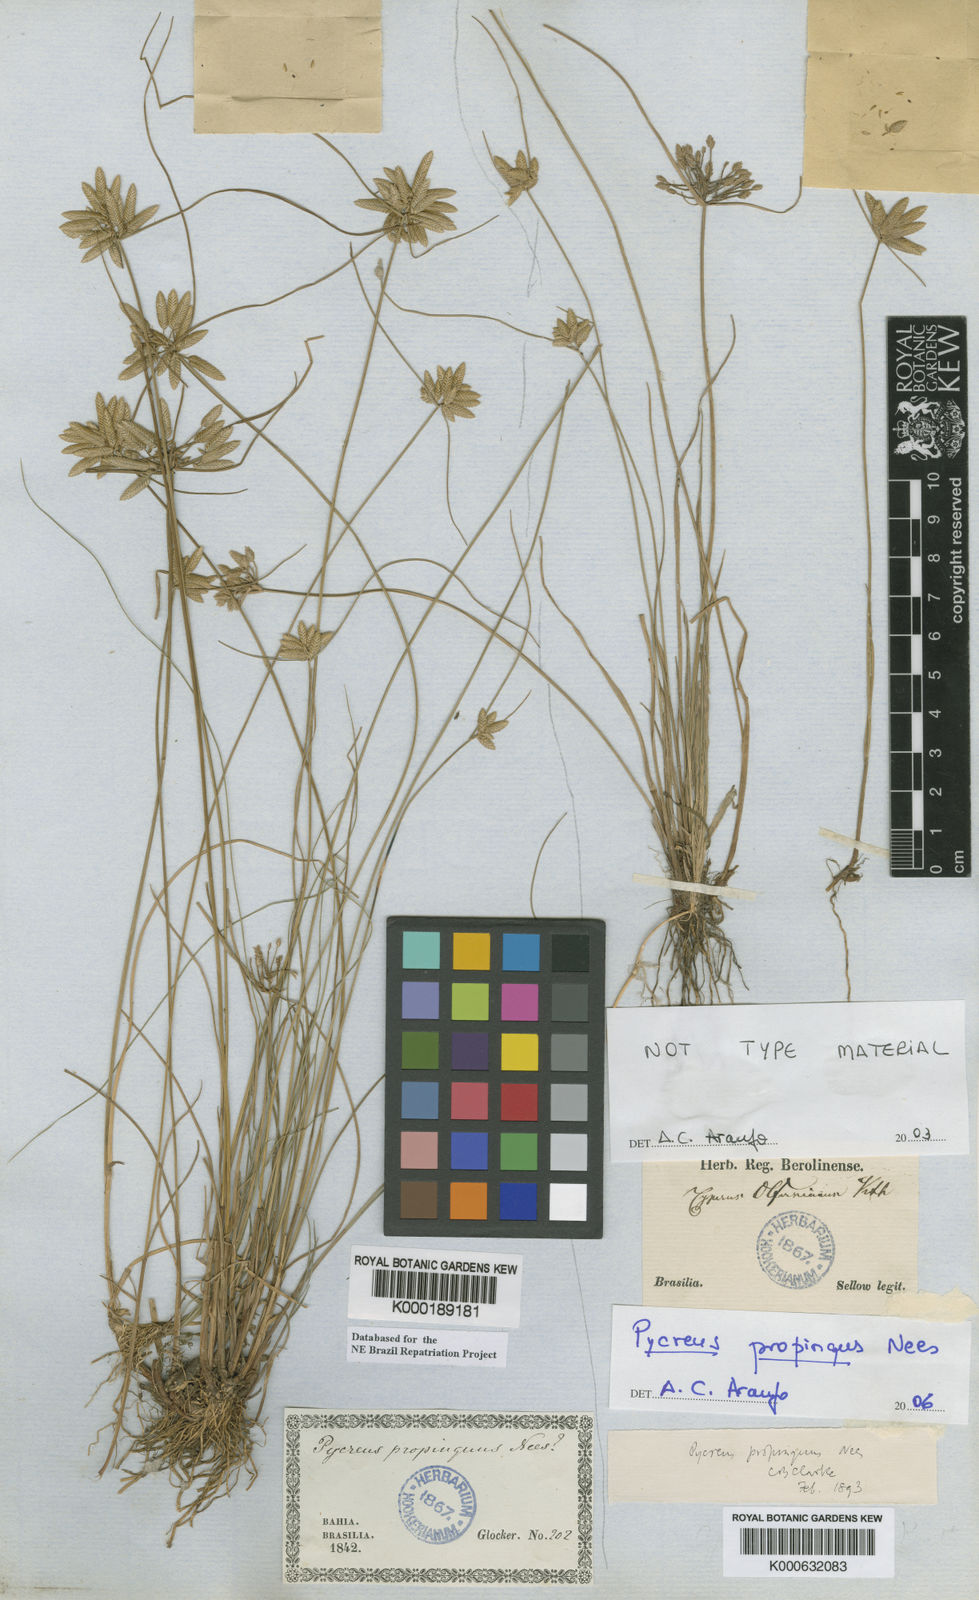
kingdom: Plantae
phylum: Tracheophyta
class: Liliopsida
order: Poales
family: Cyperaceae
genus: Cyperus
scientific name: Cyperus lanceolatus
